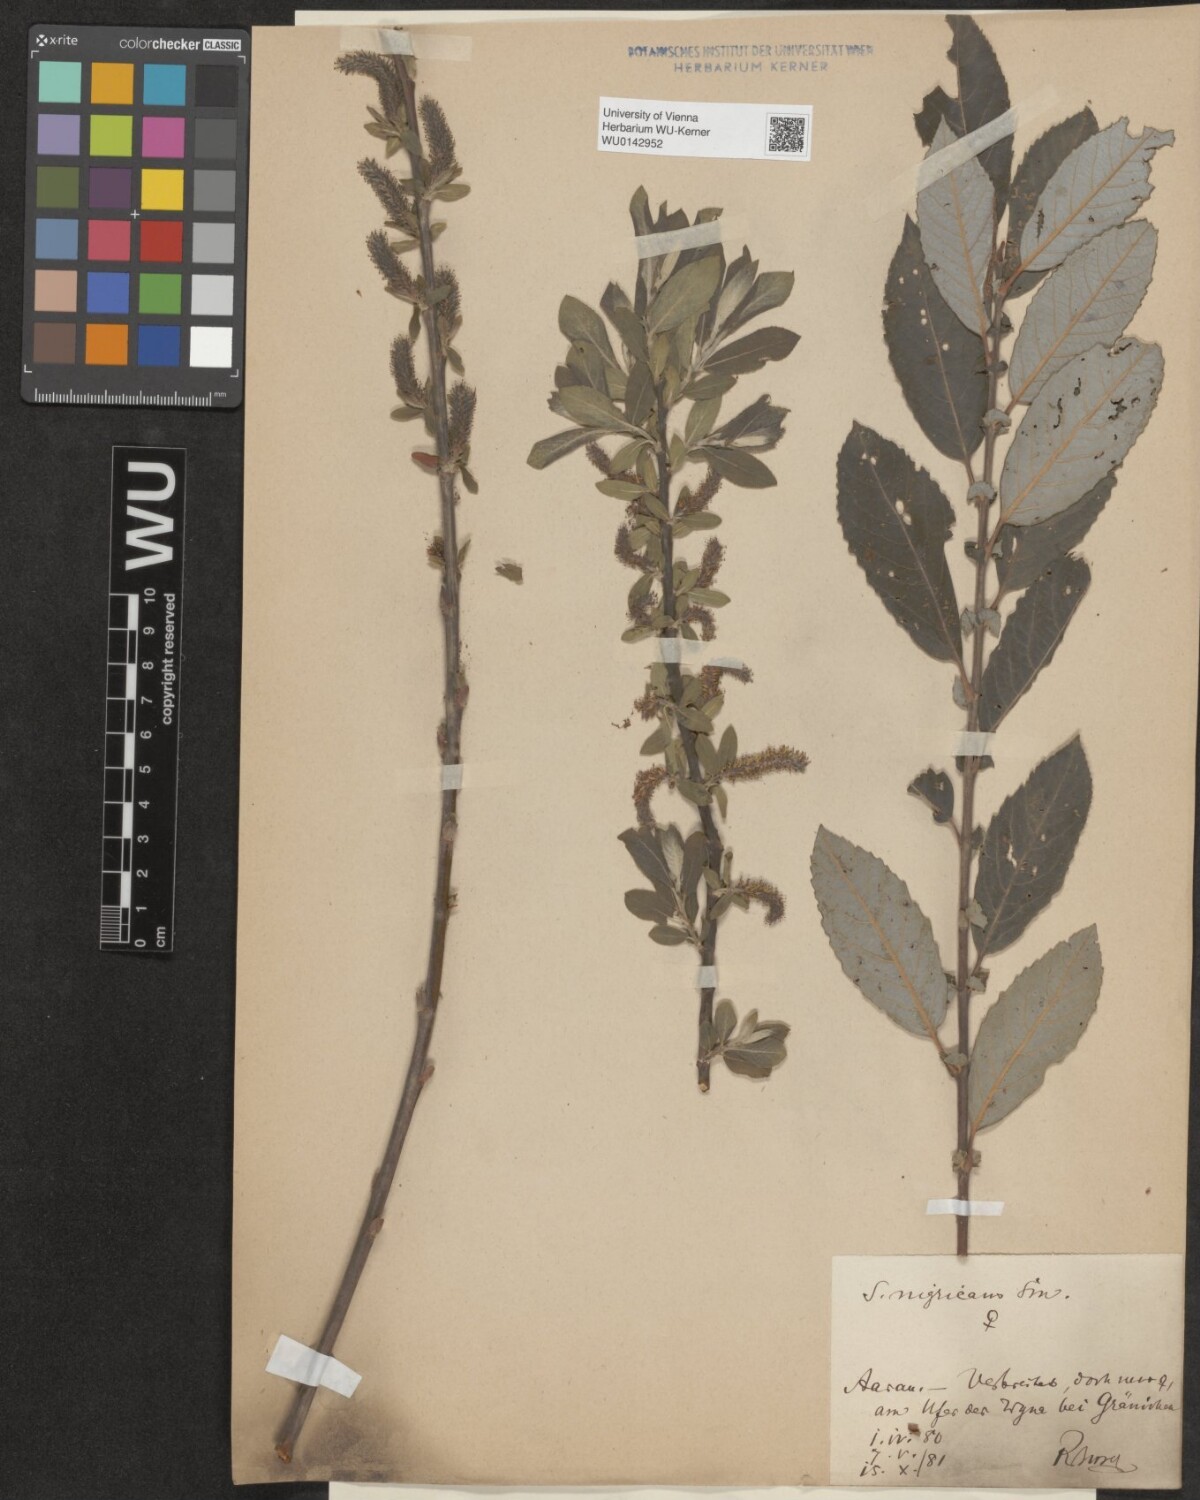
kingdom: Plantae
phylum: Tracheophyta
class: Magnoliopsida
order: Malpighiales
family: Salicaceae
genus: Salix
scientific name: Salix myrsinifolia
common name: Dark-leaved willow
